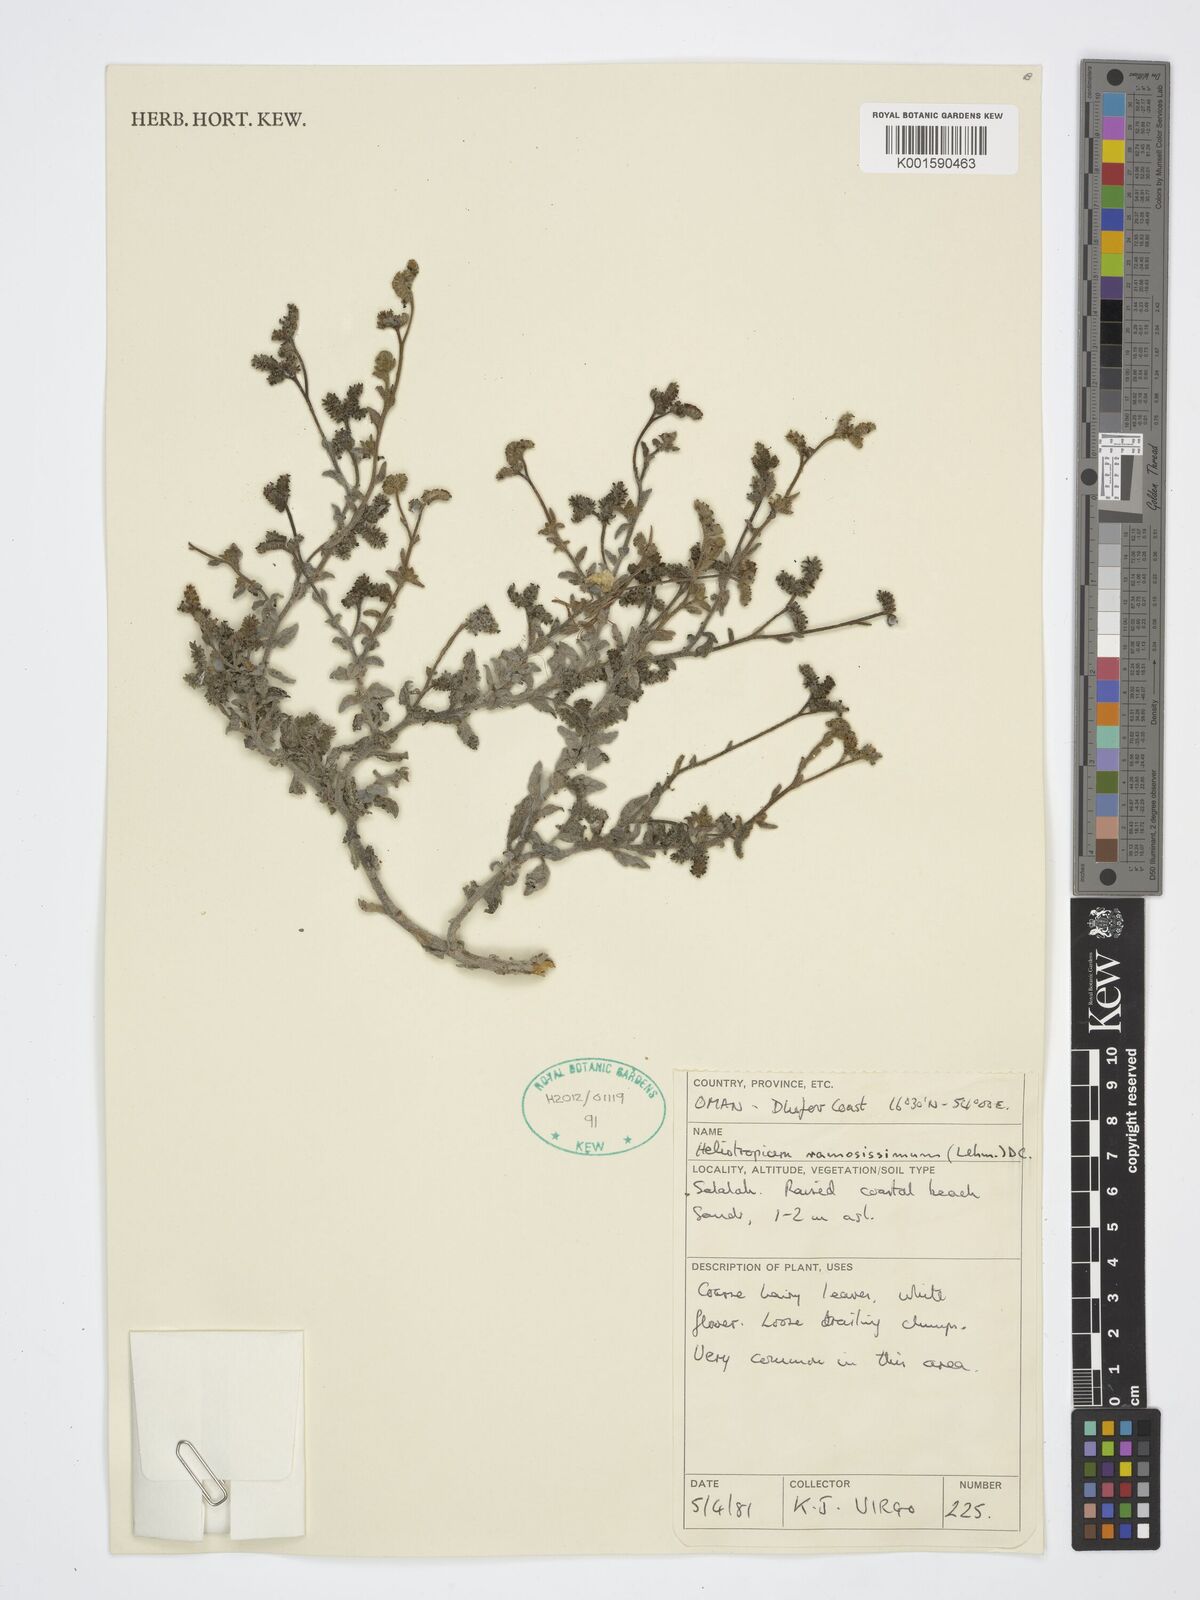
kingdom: Plantae
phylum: Tracheophyta
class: Magnoliopsida
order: Boraginales
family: Heliotropiaceae
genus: Heliotropium
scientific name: Heliotropium ramosissimum
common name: Wavy heliotrope
